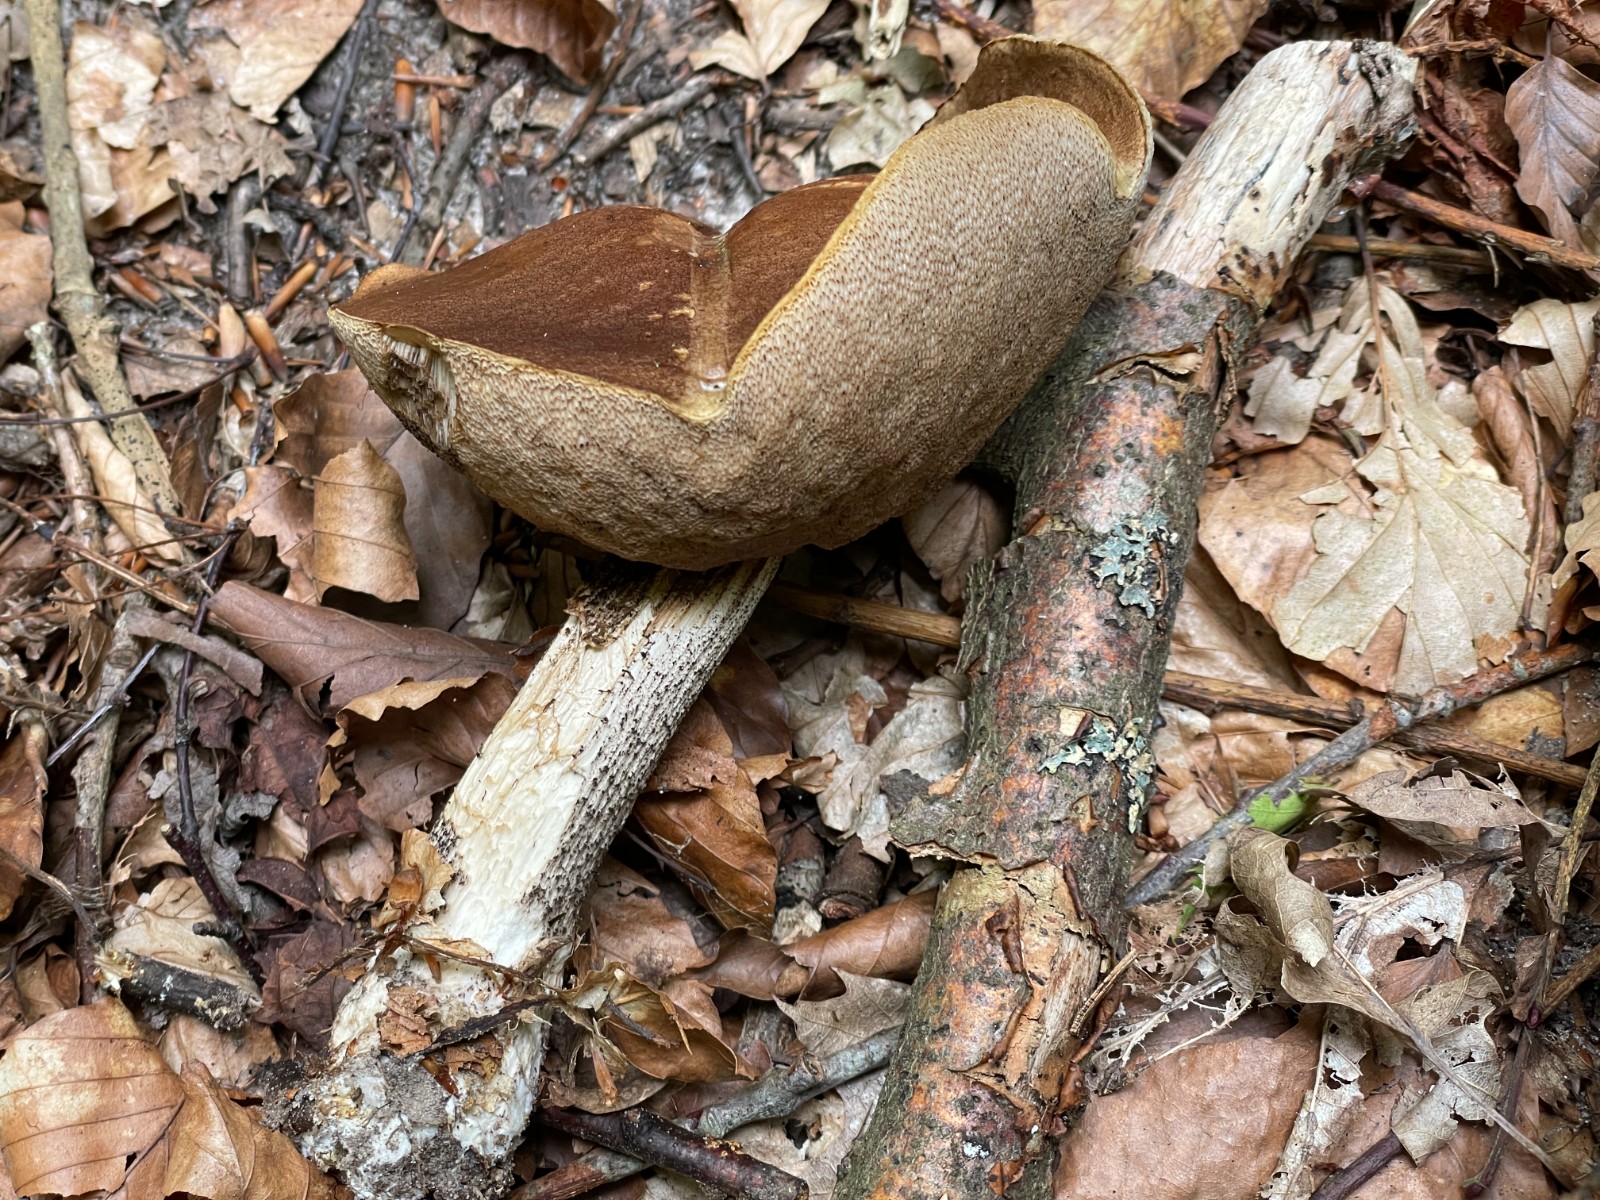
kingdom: Fungi
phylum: Basidiomycota
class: Agaricomycetes
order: Boletales
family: Boletaceae
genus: Leccinum
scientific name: Leccinum scabrum
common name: brun skælrørhat
